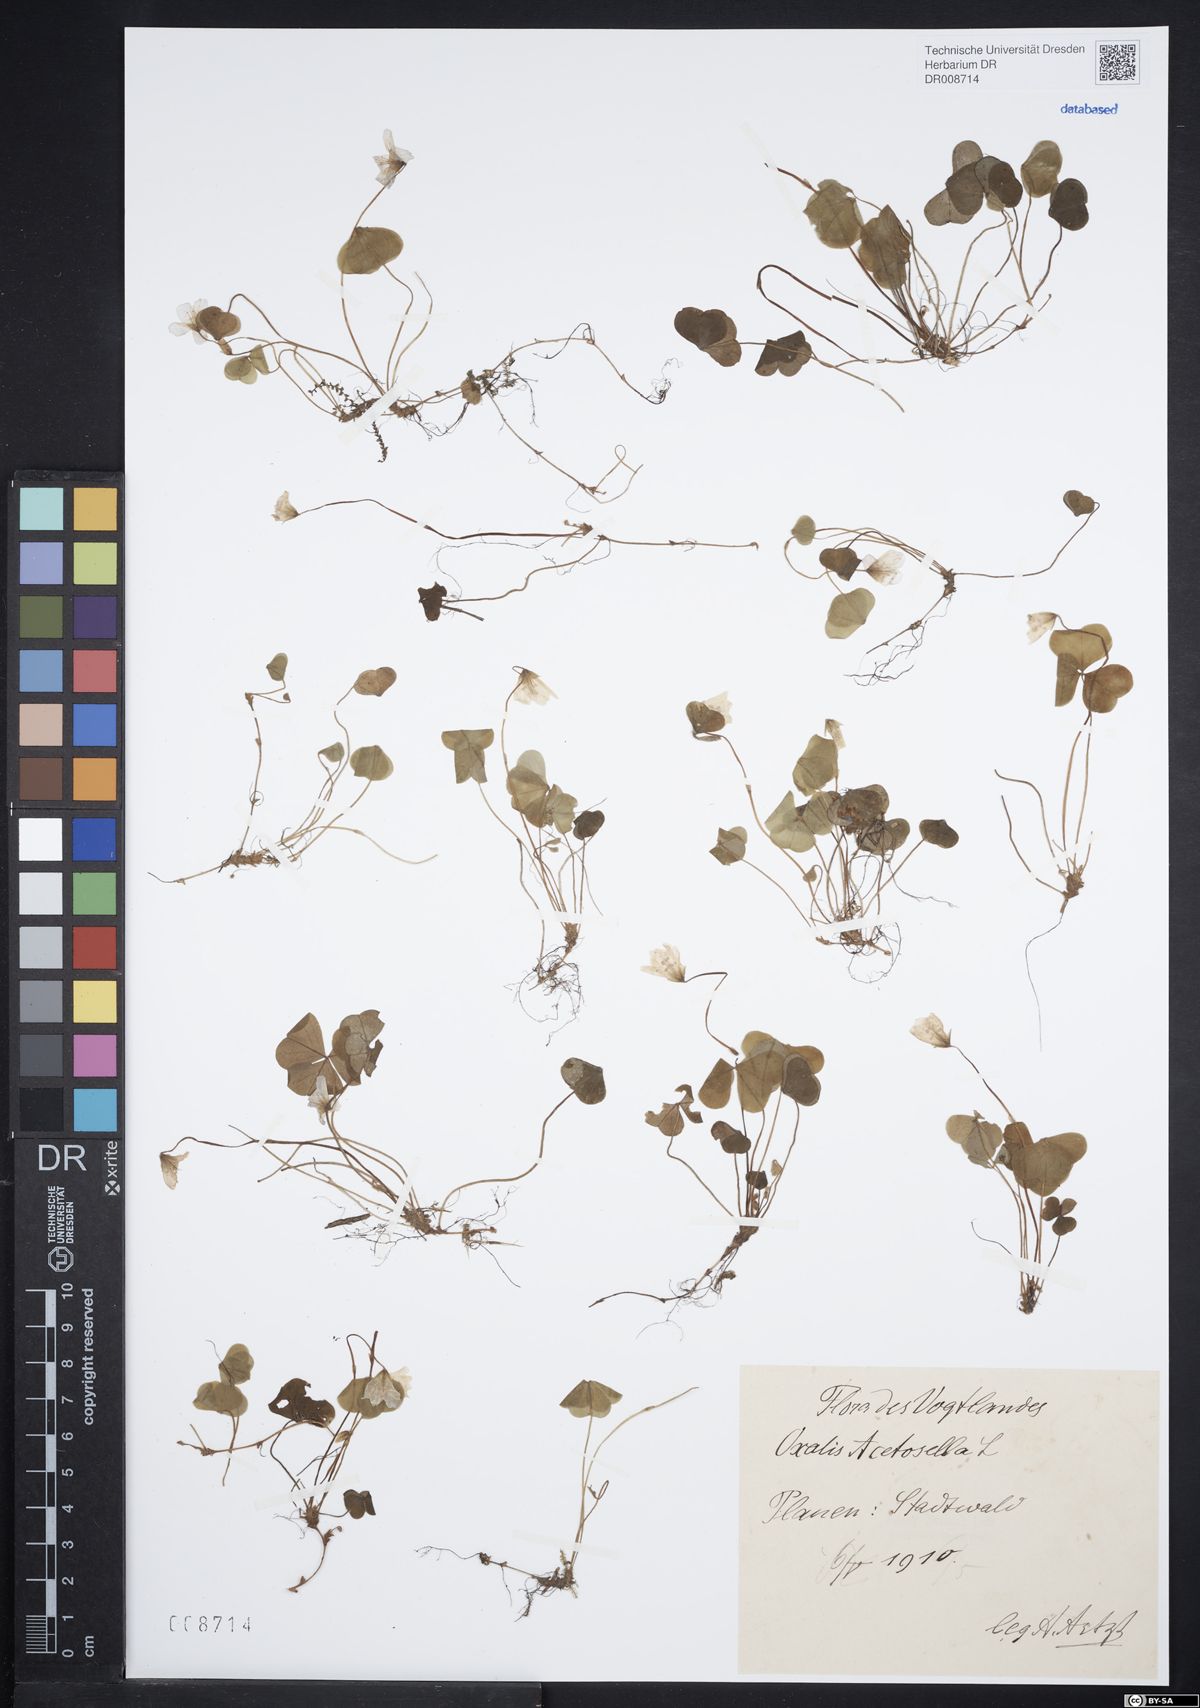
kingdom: Plantae
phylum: Tracheophyta
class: Magnoliopsida
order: Oxalidales
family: Oxalidaceae
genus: Oxalis
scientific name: Oxalis acetosella
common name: Wood-sorrel
